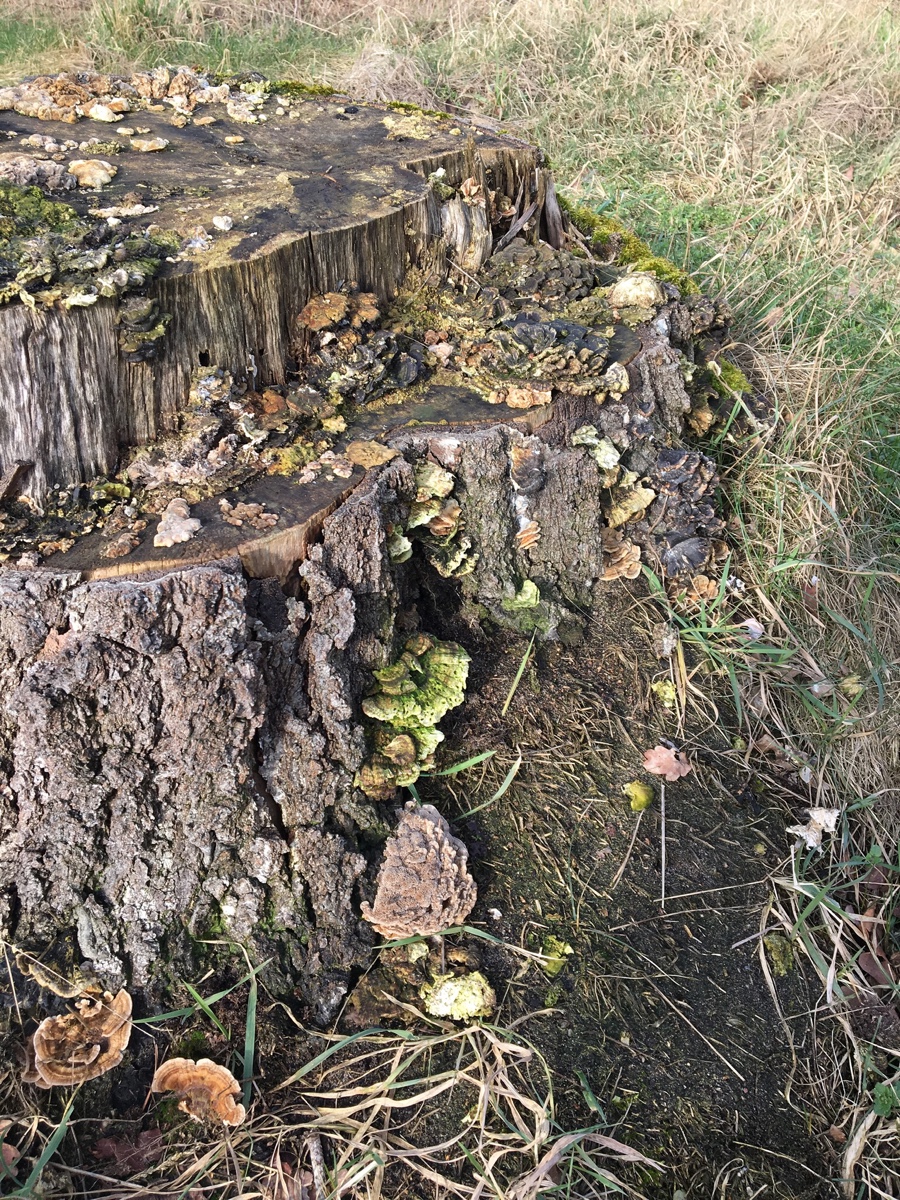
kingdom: Fungi
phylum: Basidiomycota
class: Agaricomycetes
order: Polyporales
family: Polyporaceae
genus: Trametes
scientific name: Trametes
